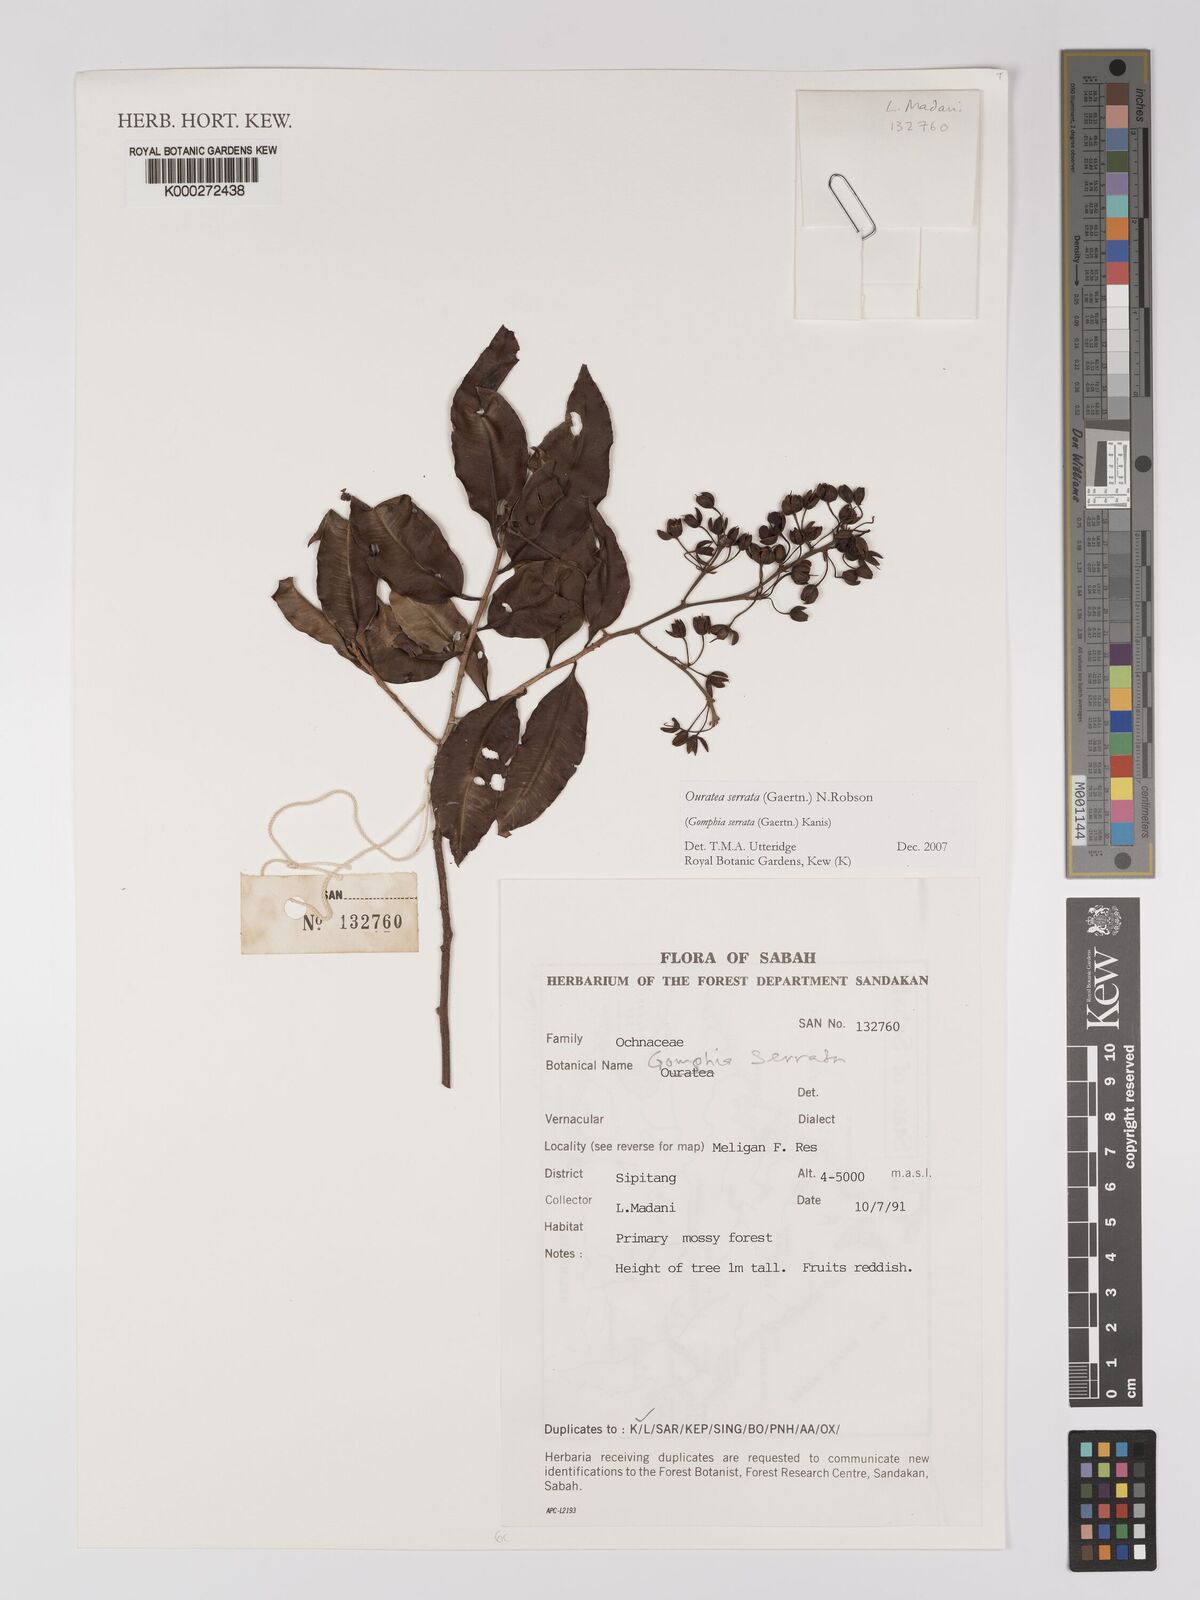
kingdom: Plantae
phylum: Tracheophyta
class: Magnoliopsida
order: Malpighiales
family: Ochnaceae
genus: Gomphia
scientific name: Gomphia serrata
